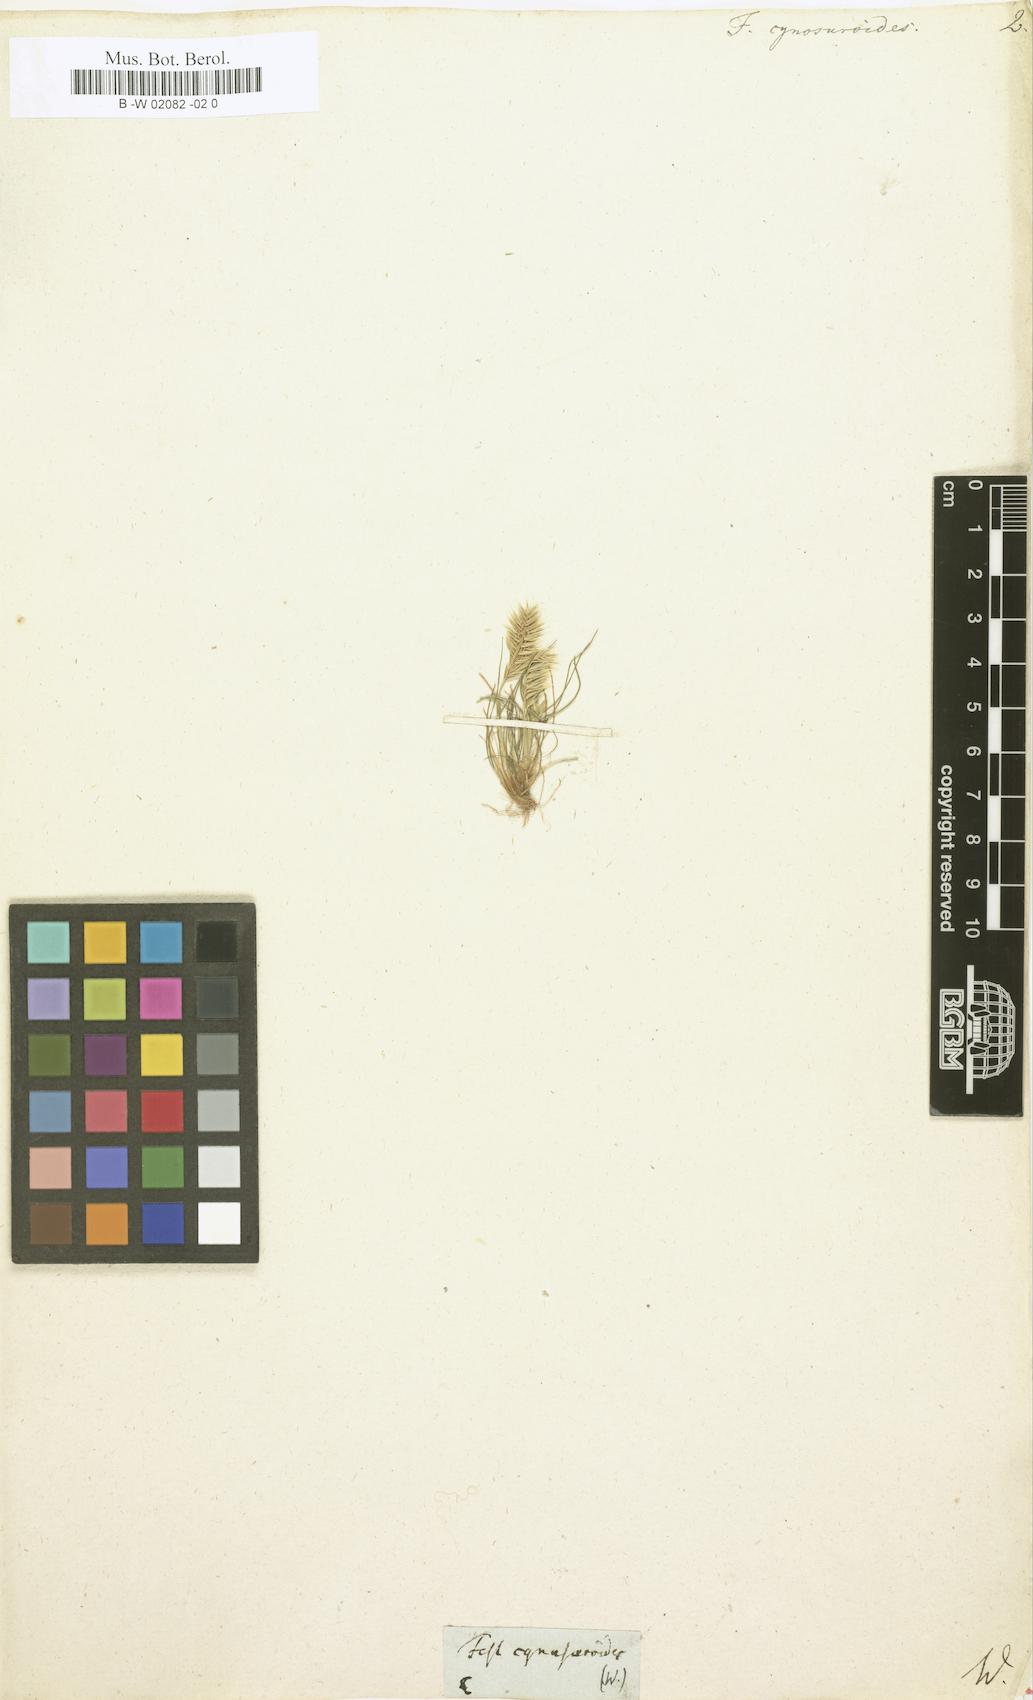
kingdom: Plantae
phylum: Tracheophyta
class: Liliopsida
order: Poales
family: Poaceae
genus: Festuca
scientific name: Festuca cynosuroides
